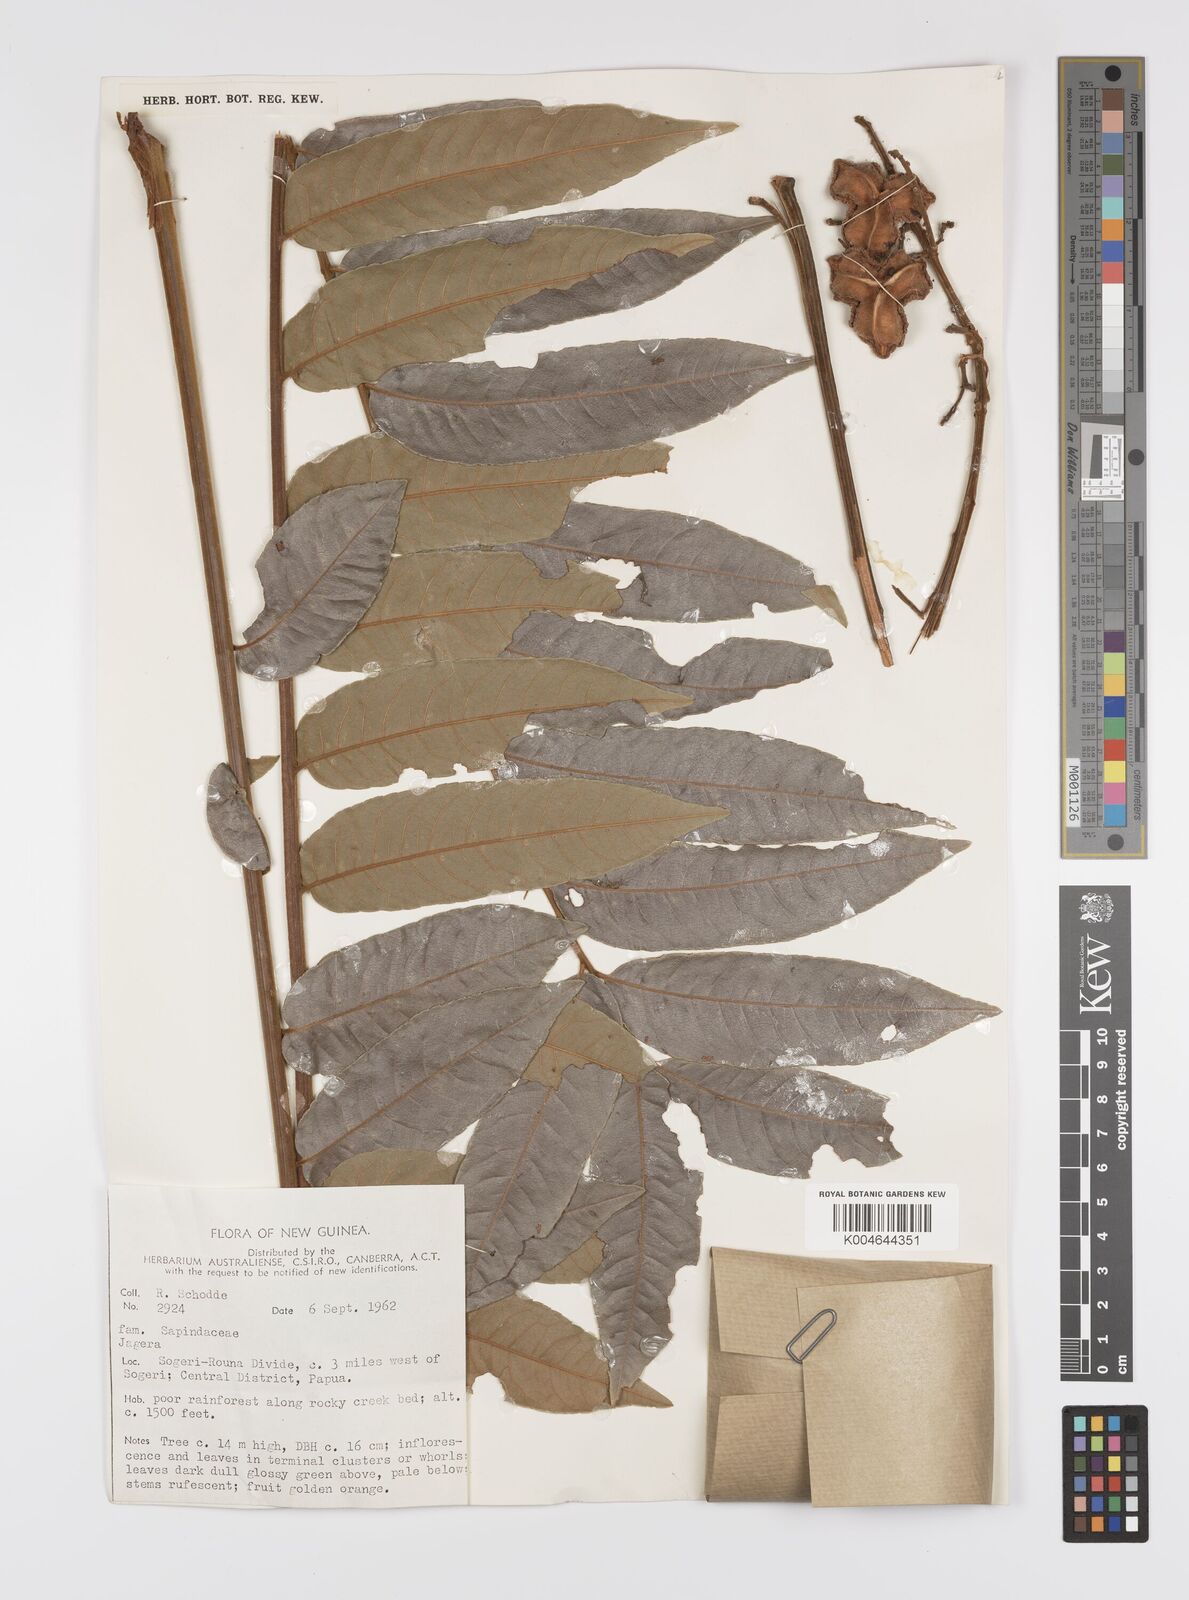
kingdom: Plantae
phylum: Tracheophyta
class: Magnoliopsida
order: Sapindales
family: Sapindaceae
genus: Jagera
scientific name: Jagera
